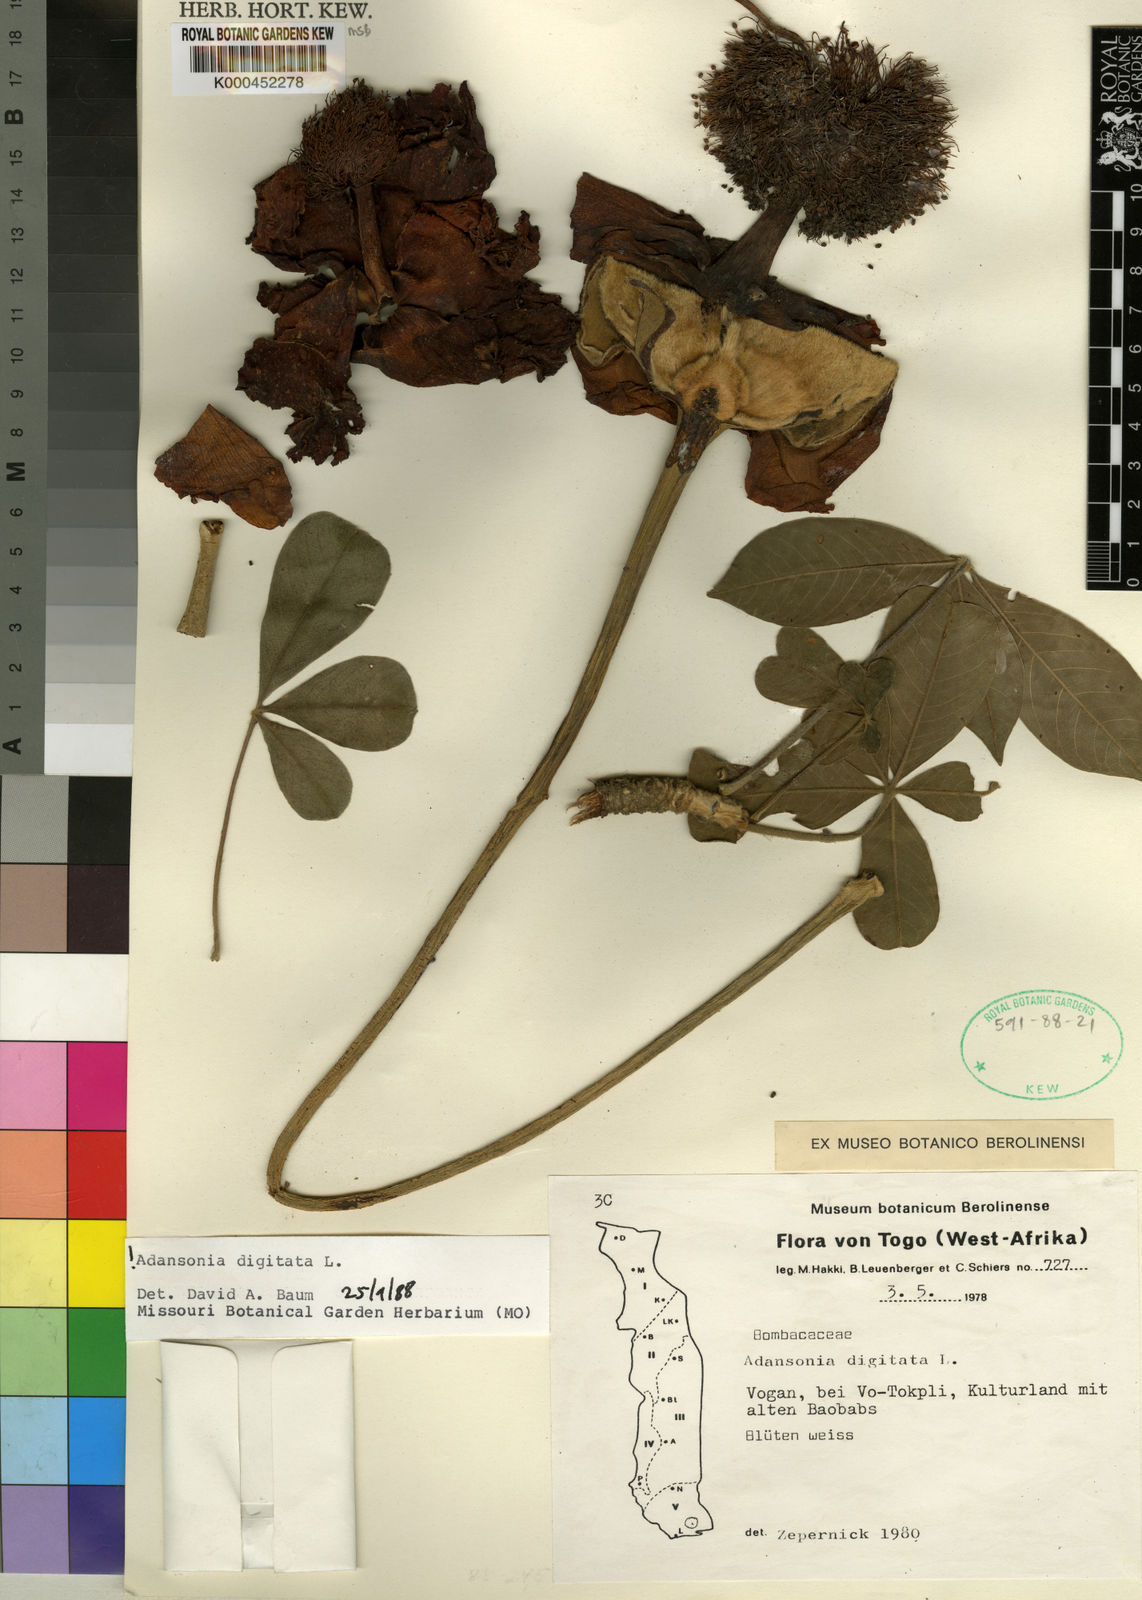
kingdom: Plantae
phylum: Tracheophyta
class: Magnoliopsida
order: Malvales
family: Malvaceae
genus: Adansonia
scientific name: Adansonia digitata
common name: Dead-rat-tree
